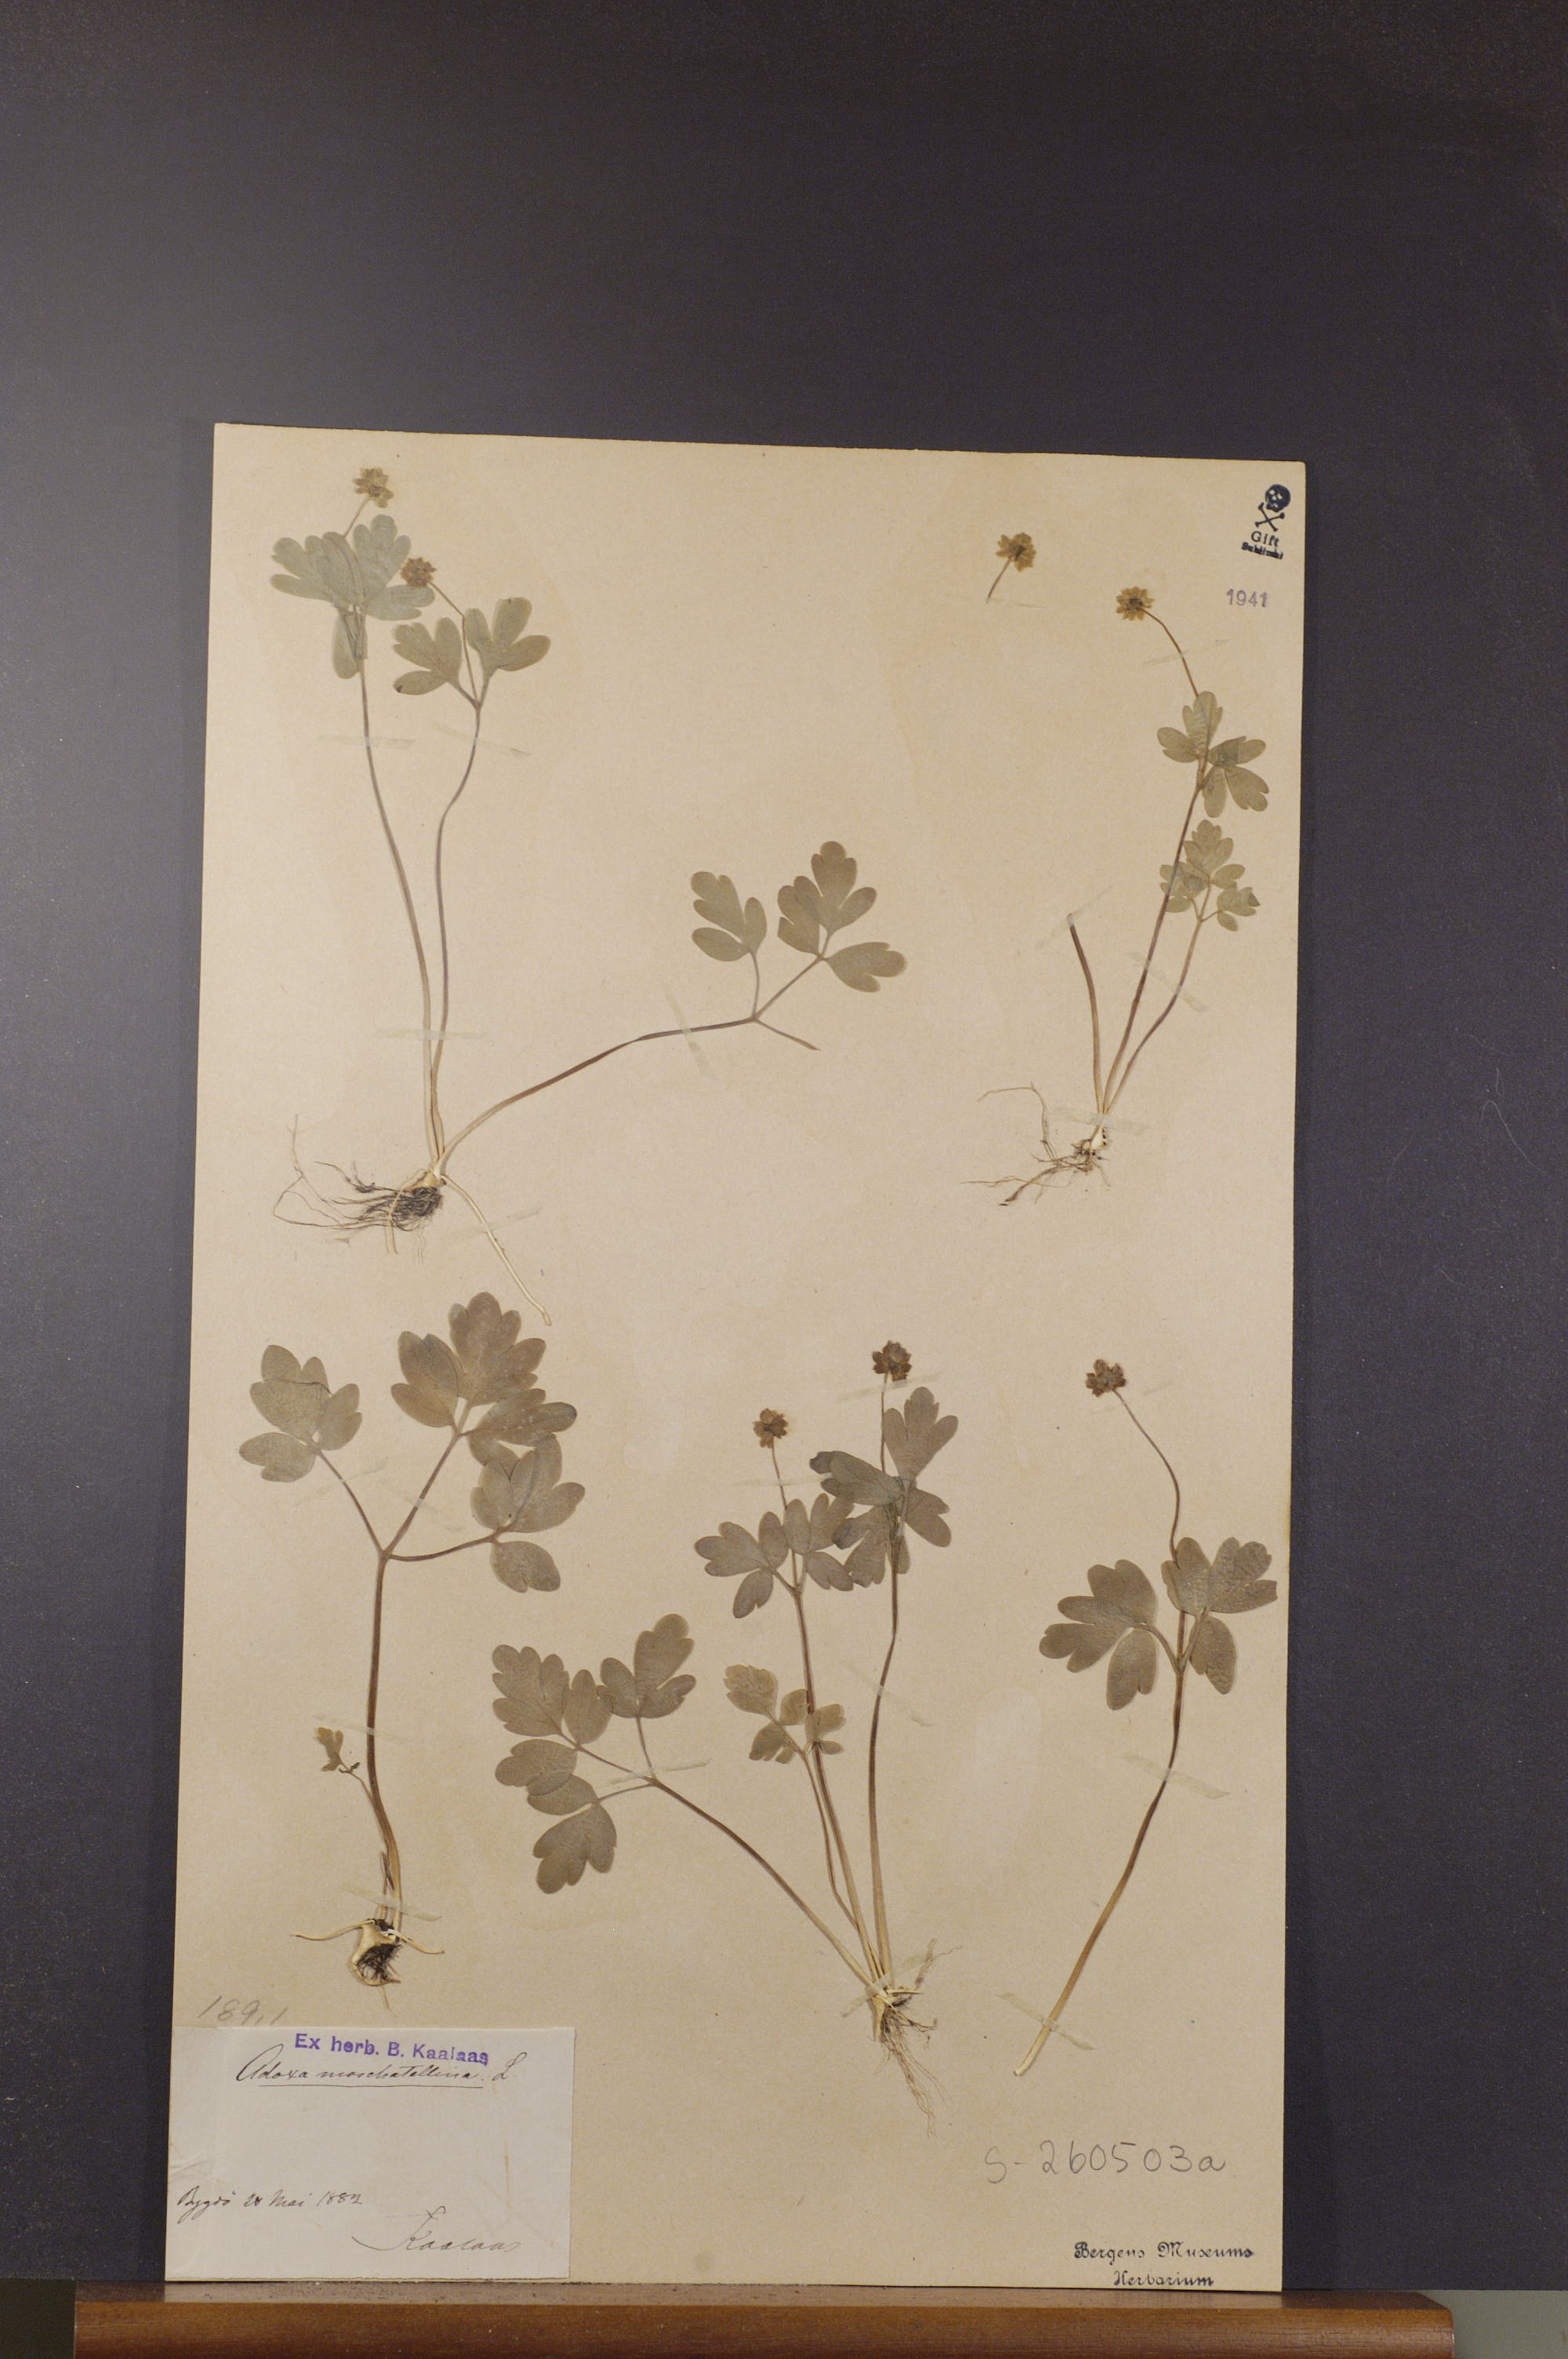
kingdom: Plantae
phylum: Tracheophyta
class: Magnoliopsida
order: Dipsacales
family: Viburnaceae
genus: Adoxa
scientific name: Adoxa moschatellina
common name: Moschatel
